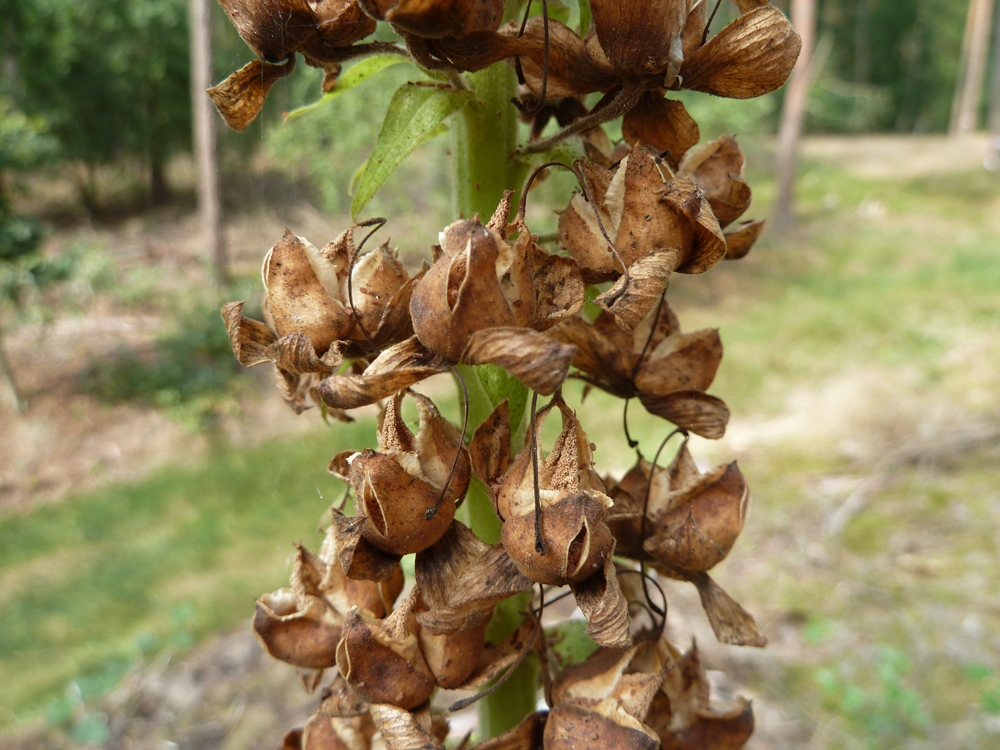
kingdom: Plantae
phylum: Tracheophyta
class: Magnoliopsida
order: Lamiales
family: Plantaginaceae
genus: Digitalis
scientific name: Digitalis purpurea
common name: Foxglove
